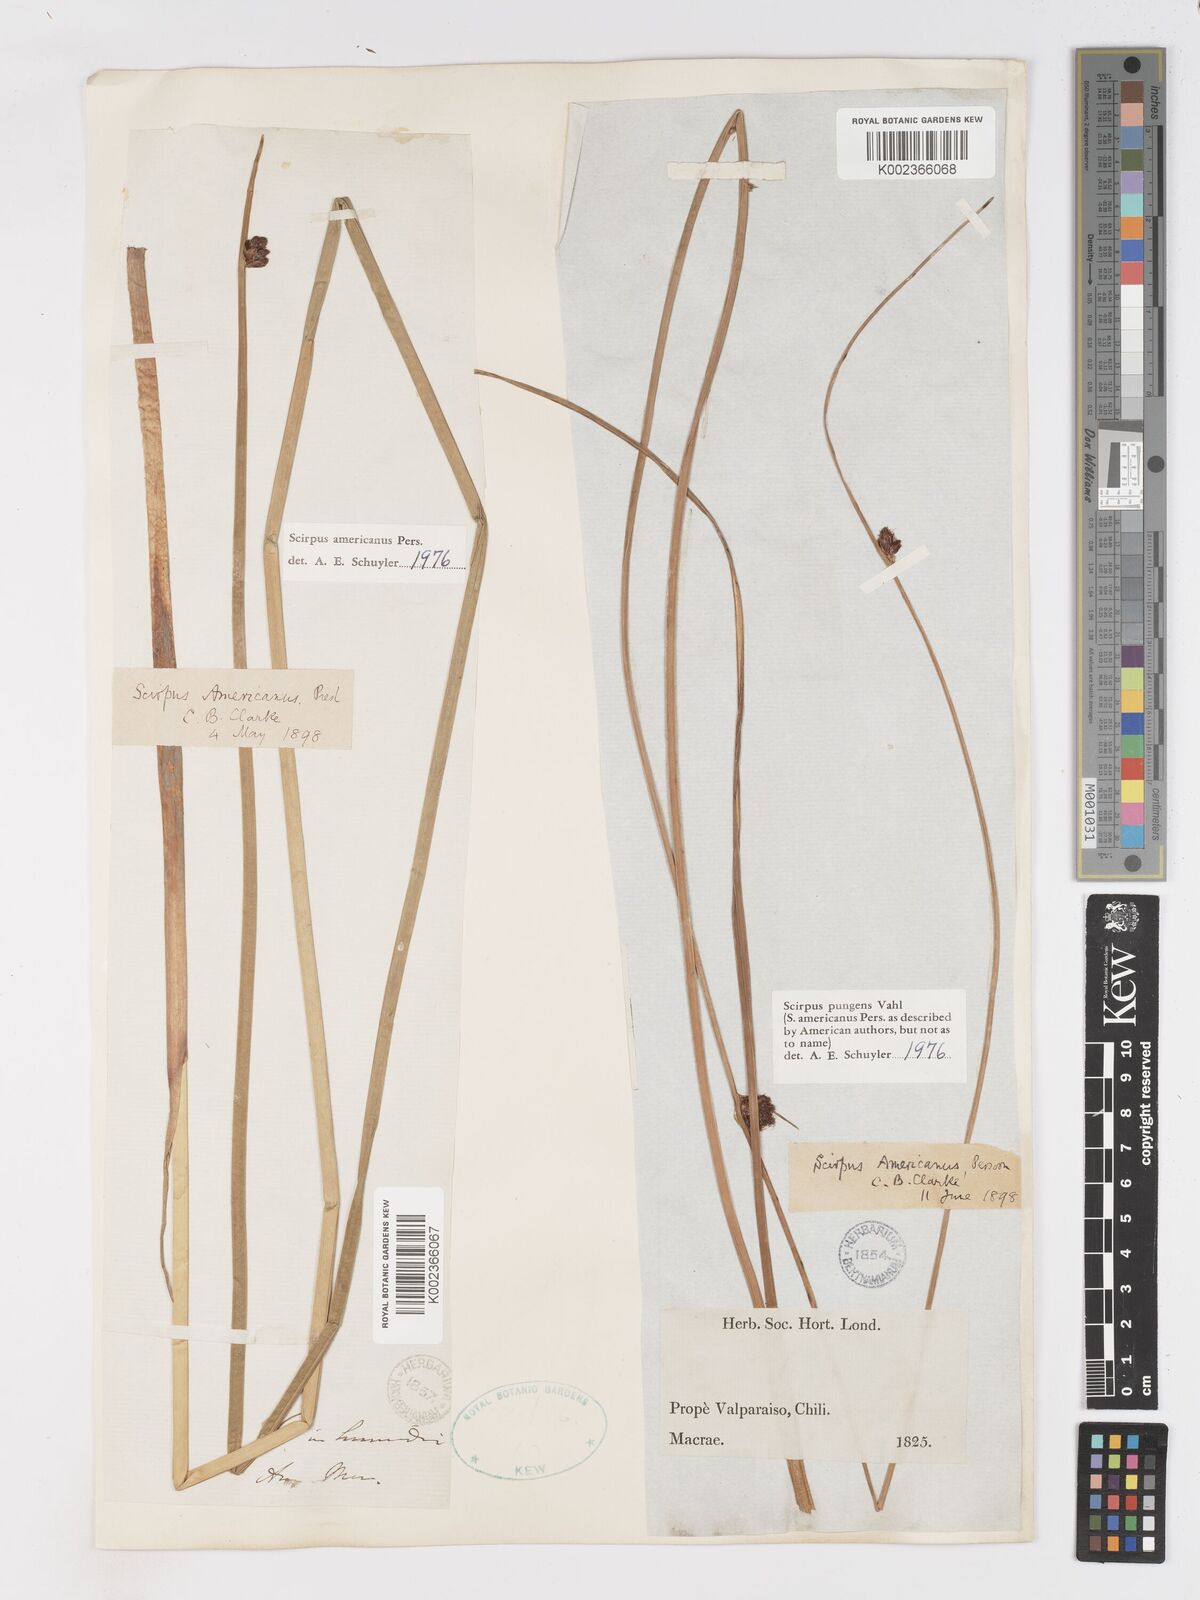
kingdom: Plantae
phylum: Tracheophyta
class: Liliopsida
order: Poales
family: Cyperaceae
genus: Schoenoplectus
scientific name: Schoenoplectus pungens
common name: Sharp club-rush
